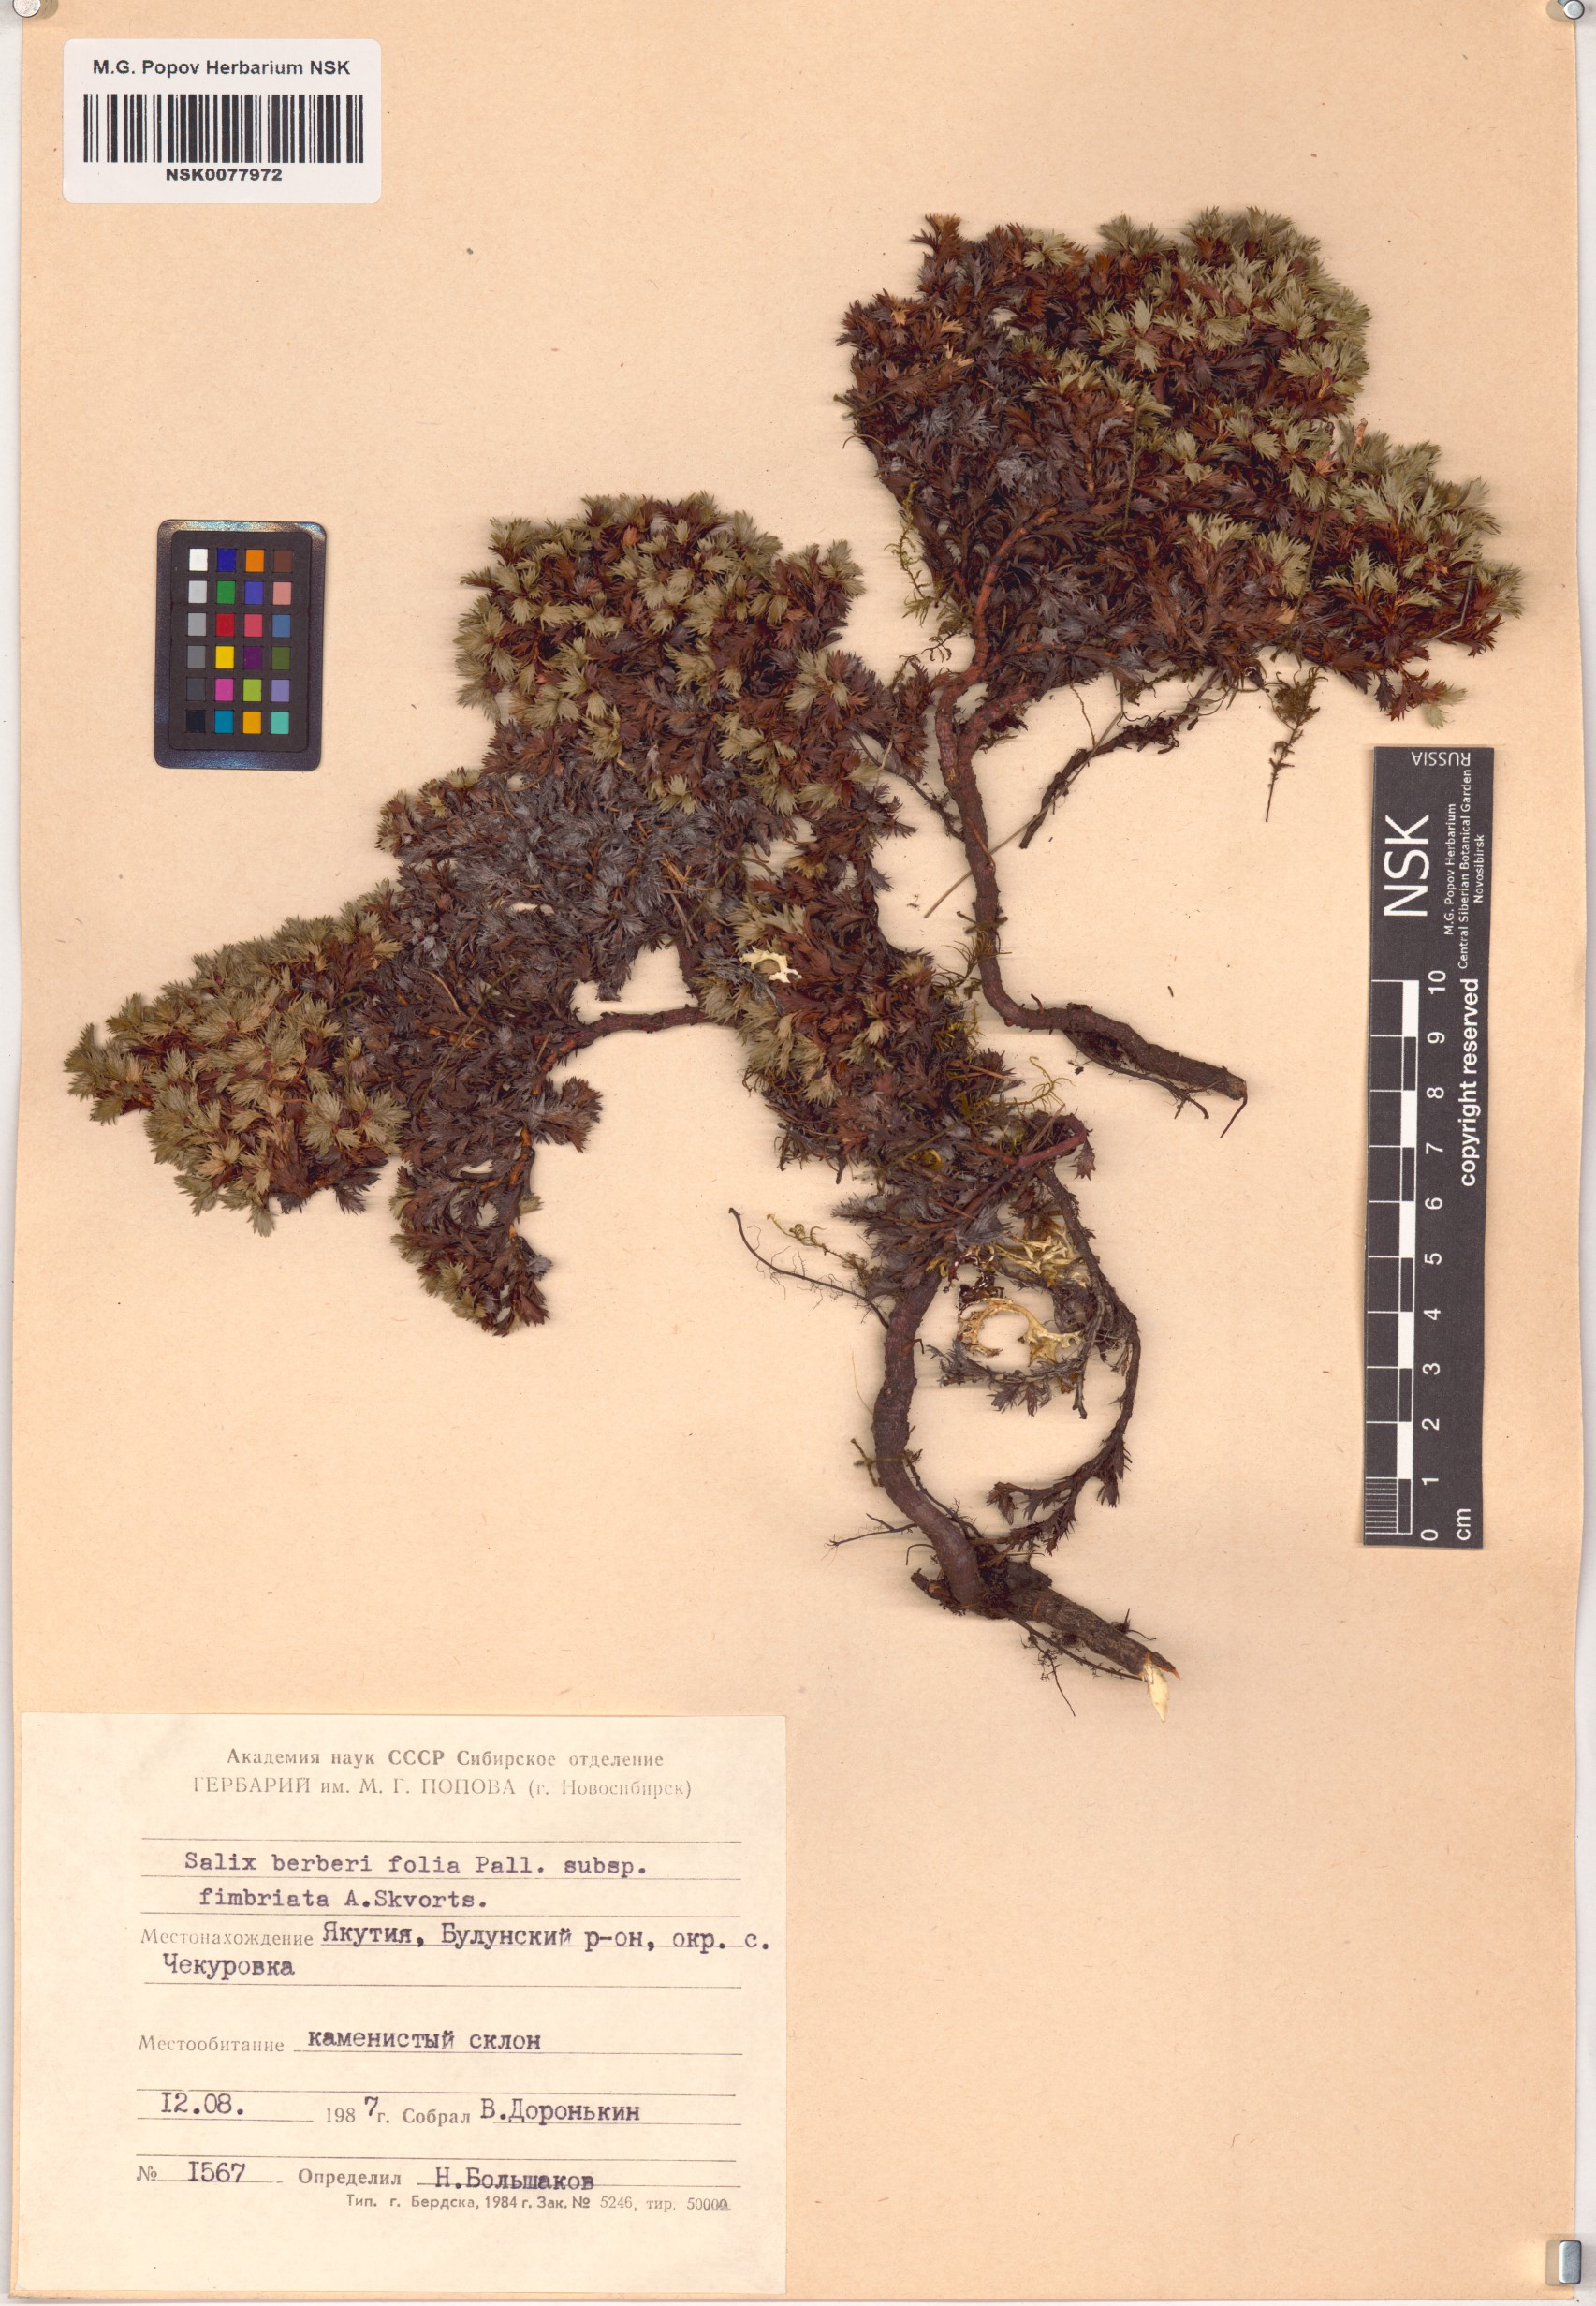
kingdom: Plantae
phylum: Tracheophyta
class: Magnoliopsida
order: Malpighiales
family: Salicaceae
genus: Salix
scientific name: Salix berberifolia
